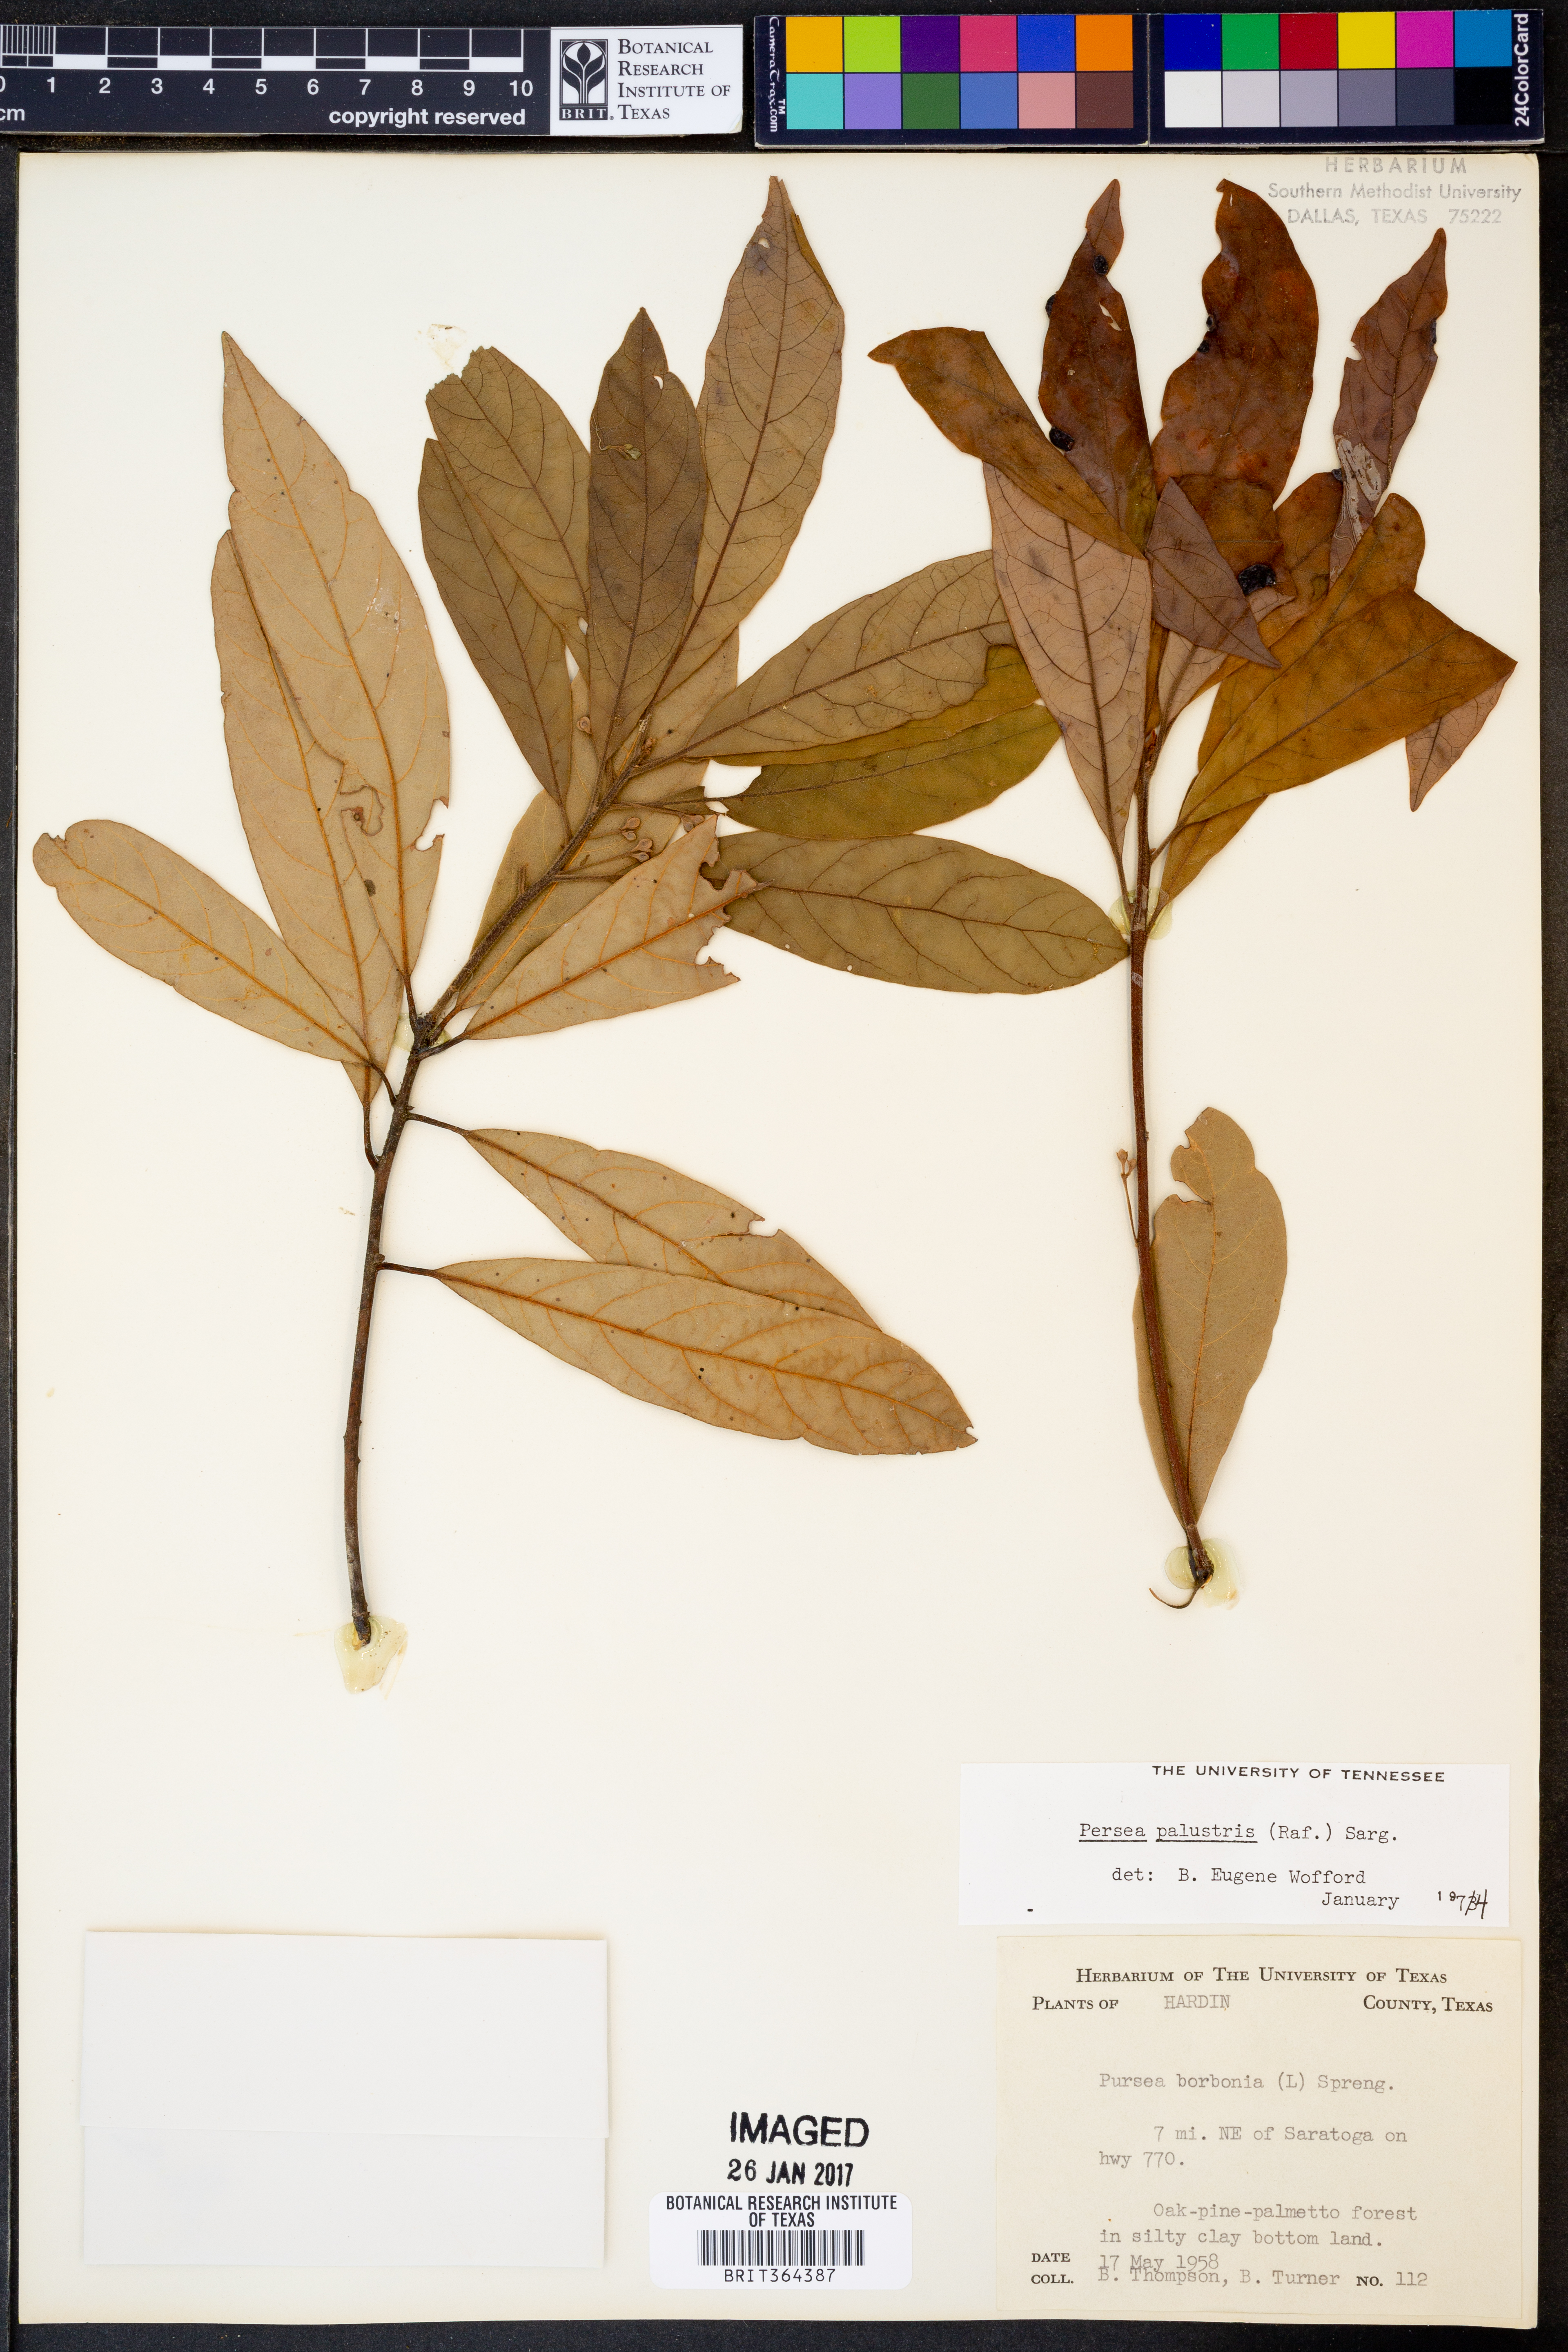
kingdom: Plantae
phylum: Tracheophyta
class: Magnoliopsida
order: Laurales
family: Lauraceae
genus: Persea
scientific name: Persea palustris
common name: Swampbay
